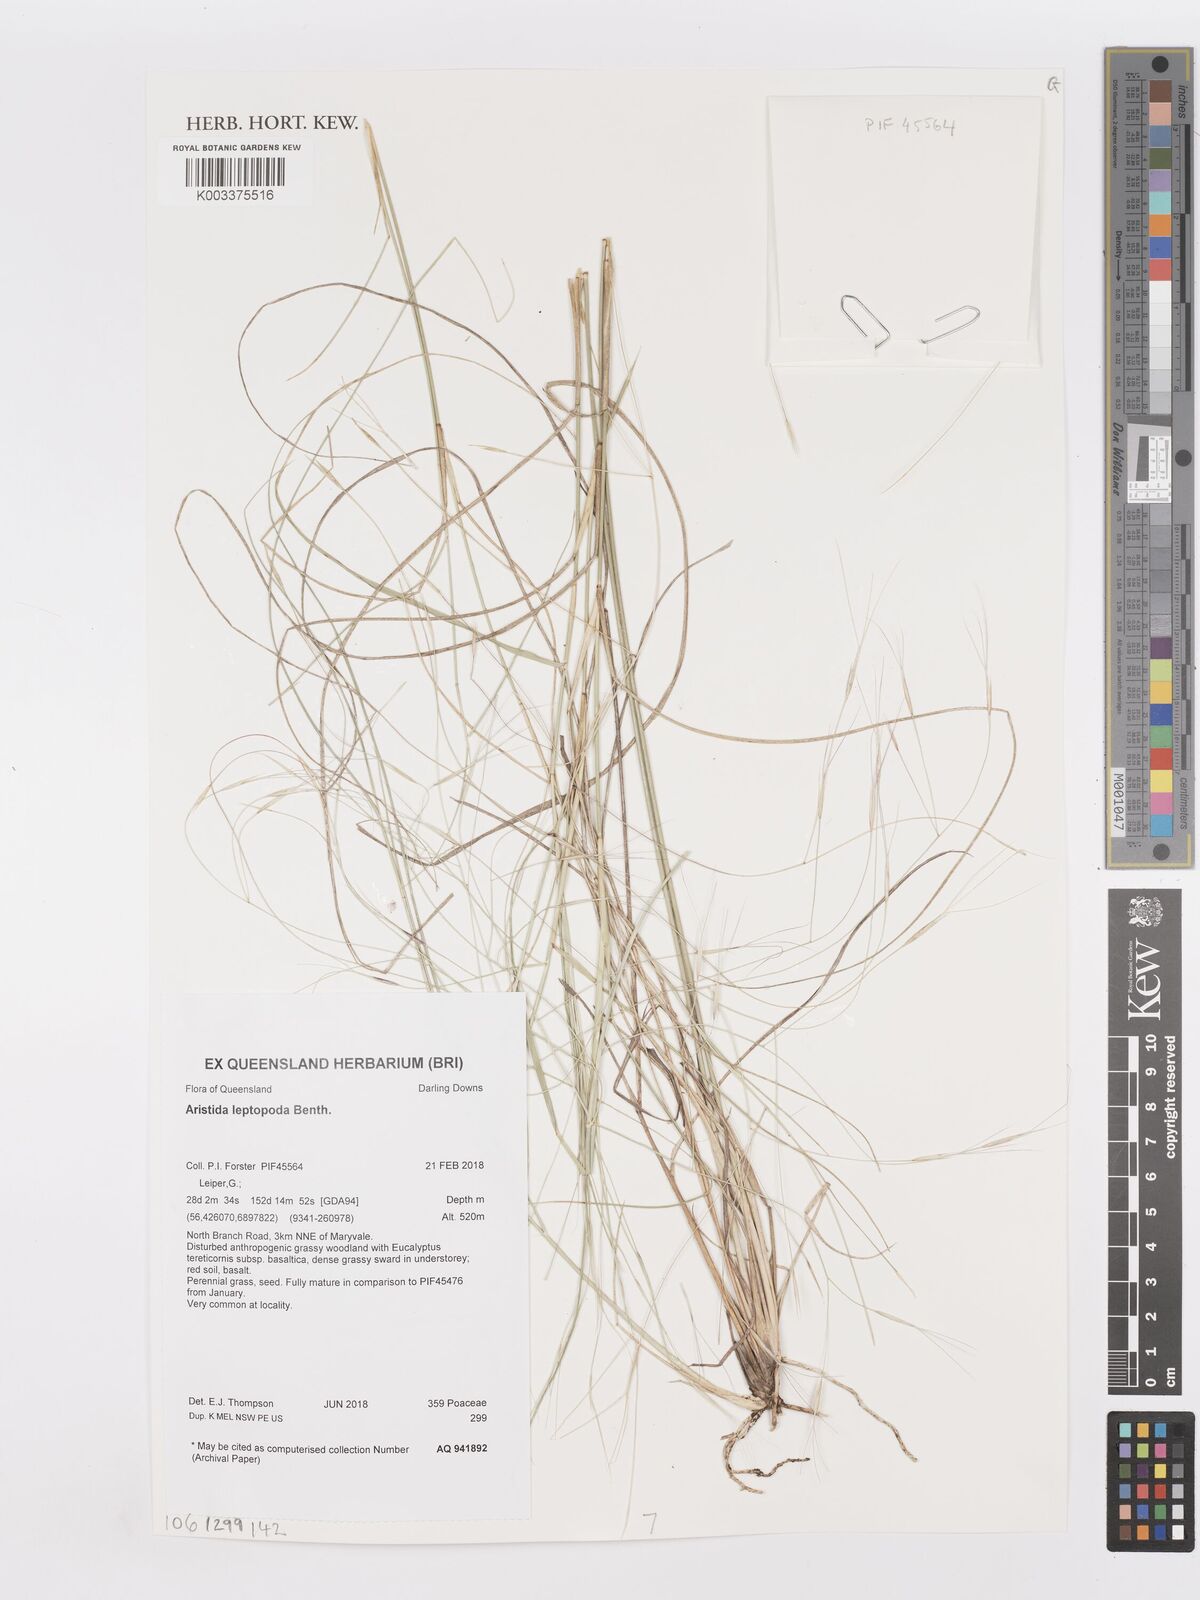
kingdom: Plantae
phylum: Tracheophyta
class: Liliopsida
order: Poales
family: Poaceae
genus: Aristida
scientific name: Aristida leptopoda
